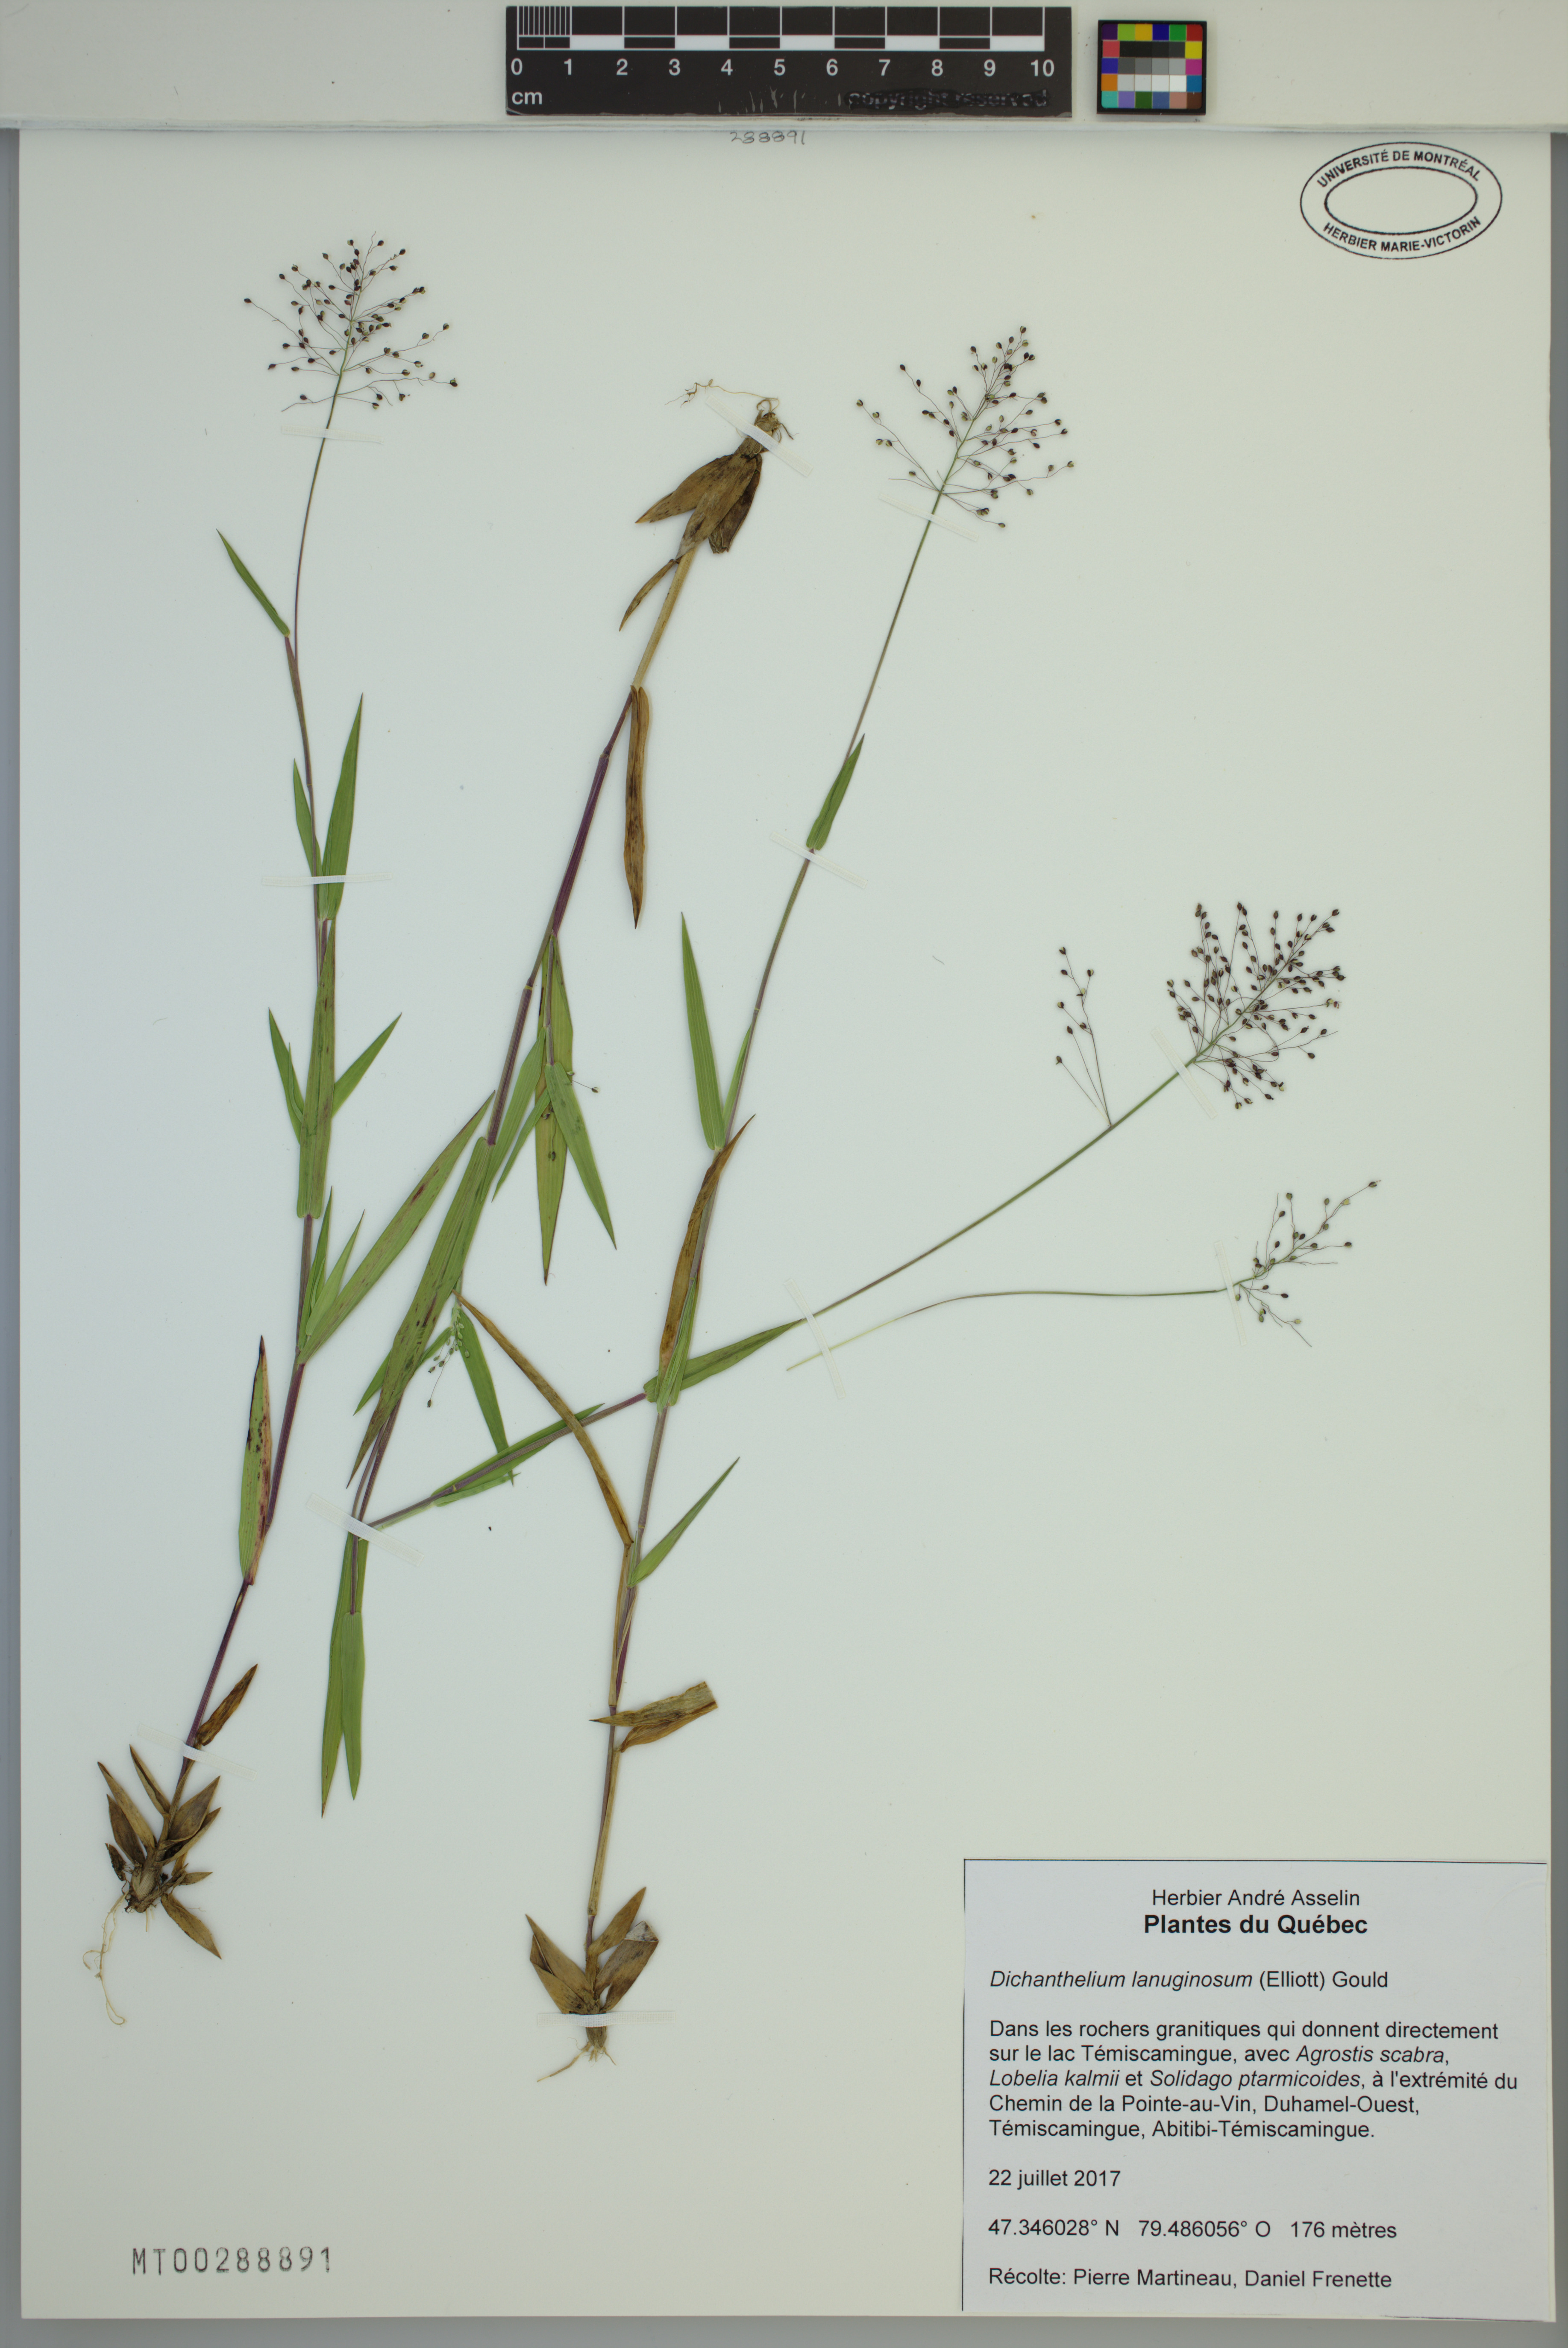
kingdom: Plantae
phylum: Tracheophyta
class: Liliopsida
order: Poales
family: Poaceae
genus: Dichanthelium
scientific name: Dichanthelium lanuginosum
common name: Woolly panicgrass
